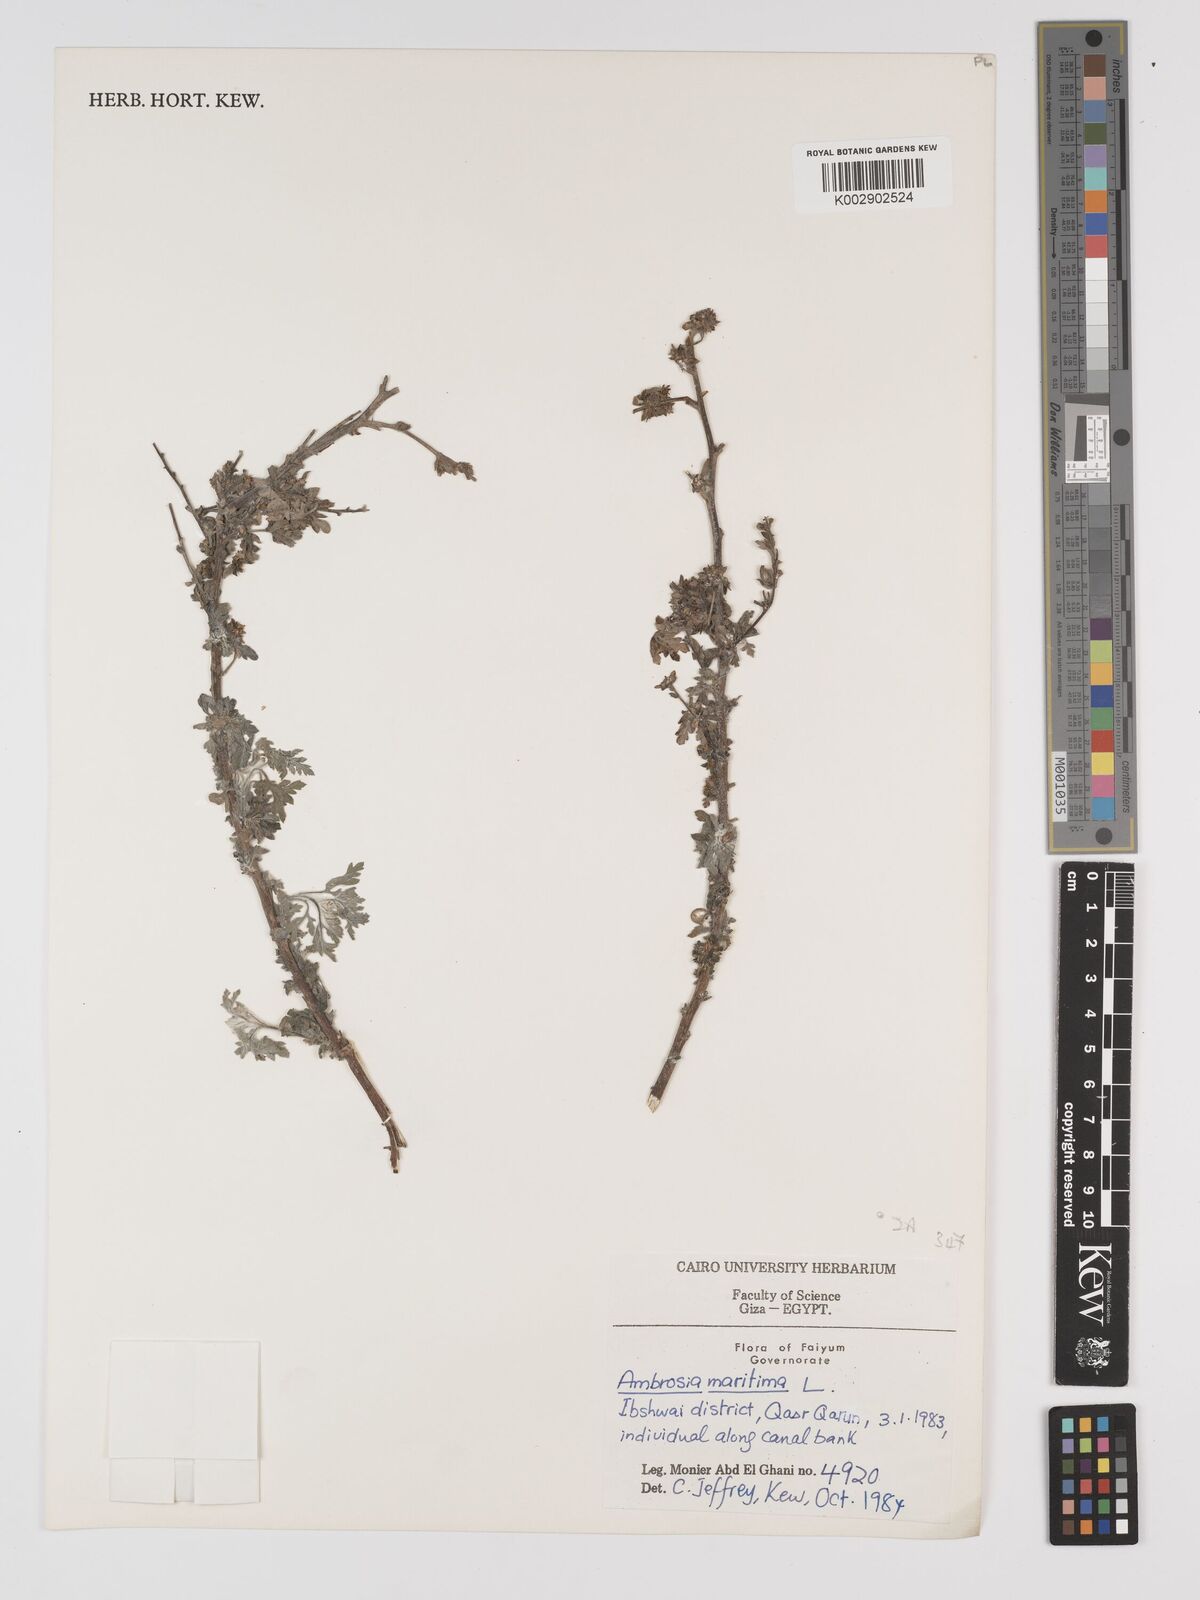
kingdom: Plantae
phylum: Tracheophyta
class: Magnoliopsida
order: Asterales
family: Asteraceae
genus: Ambrosia
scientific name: Ambrosia maritima
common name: Sea ambrosia
